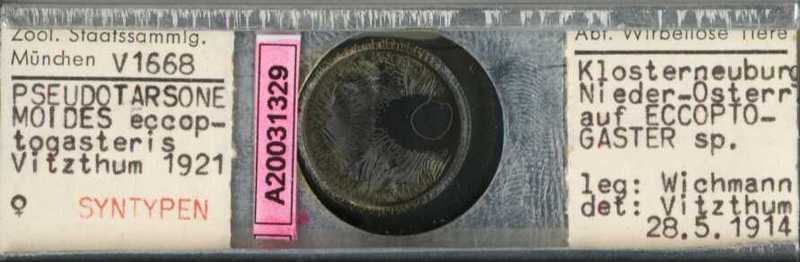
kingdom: Animalia
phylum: Arthropoda
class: Arachnida
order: Trombidiformes
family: Tarsonemidae
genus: Pseudotarsonemoides
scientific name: Pseudotarsonemoides eccoptogasteris
